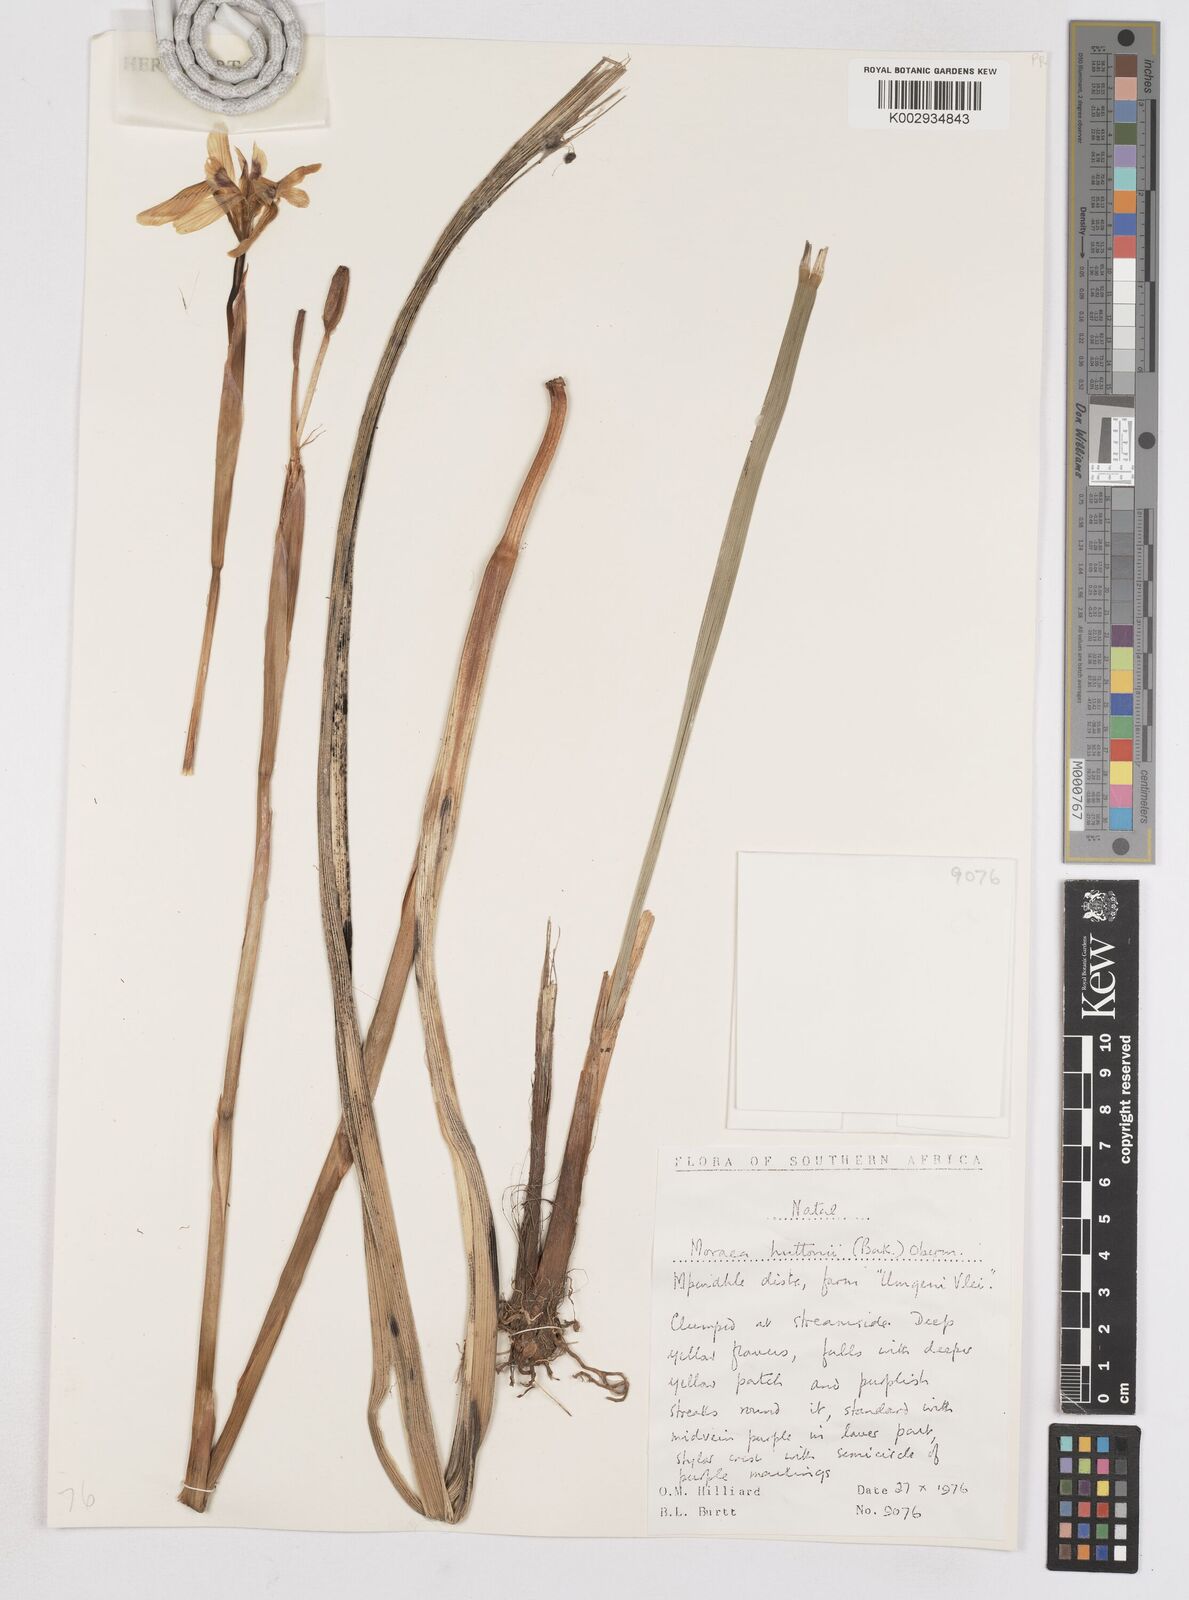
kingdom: Plantae
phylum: Tracheophyta
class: Liliopsida
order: Asparagales
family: Iridaceae
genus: Moraea
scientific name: Moraea huttonii
